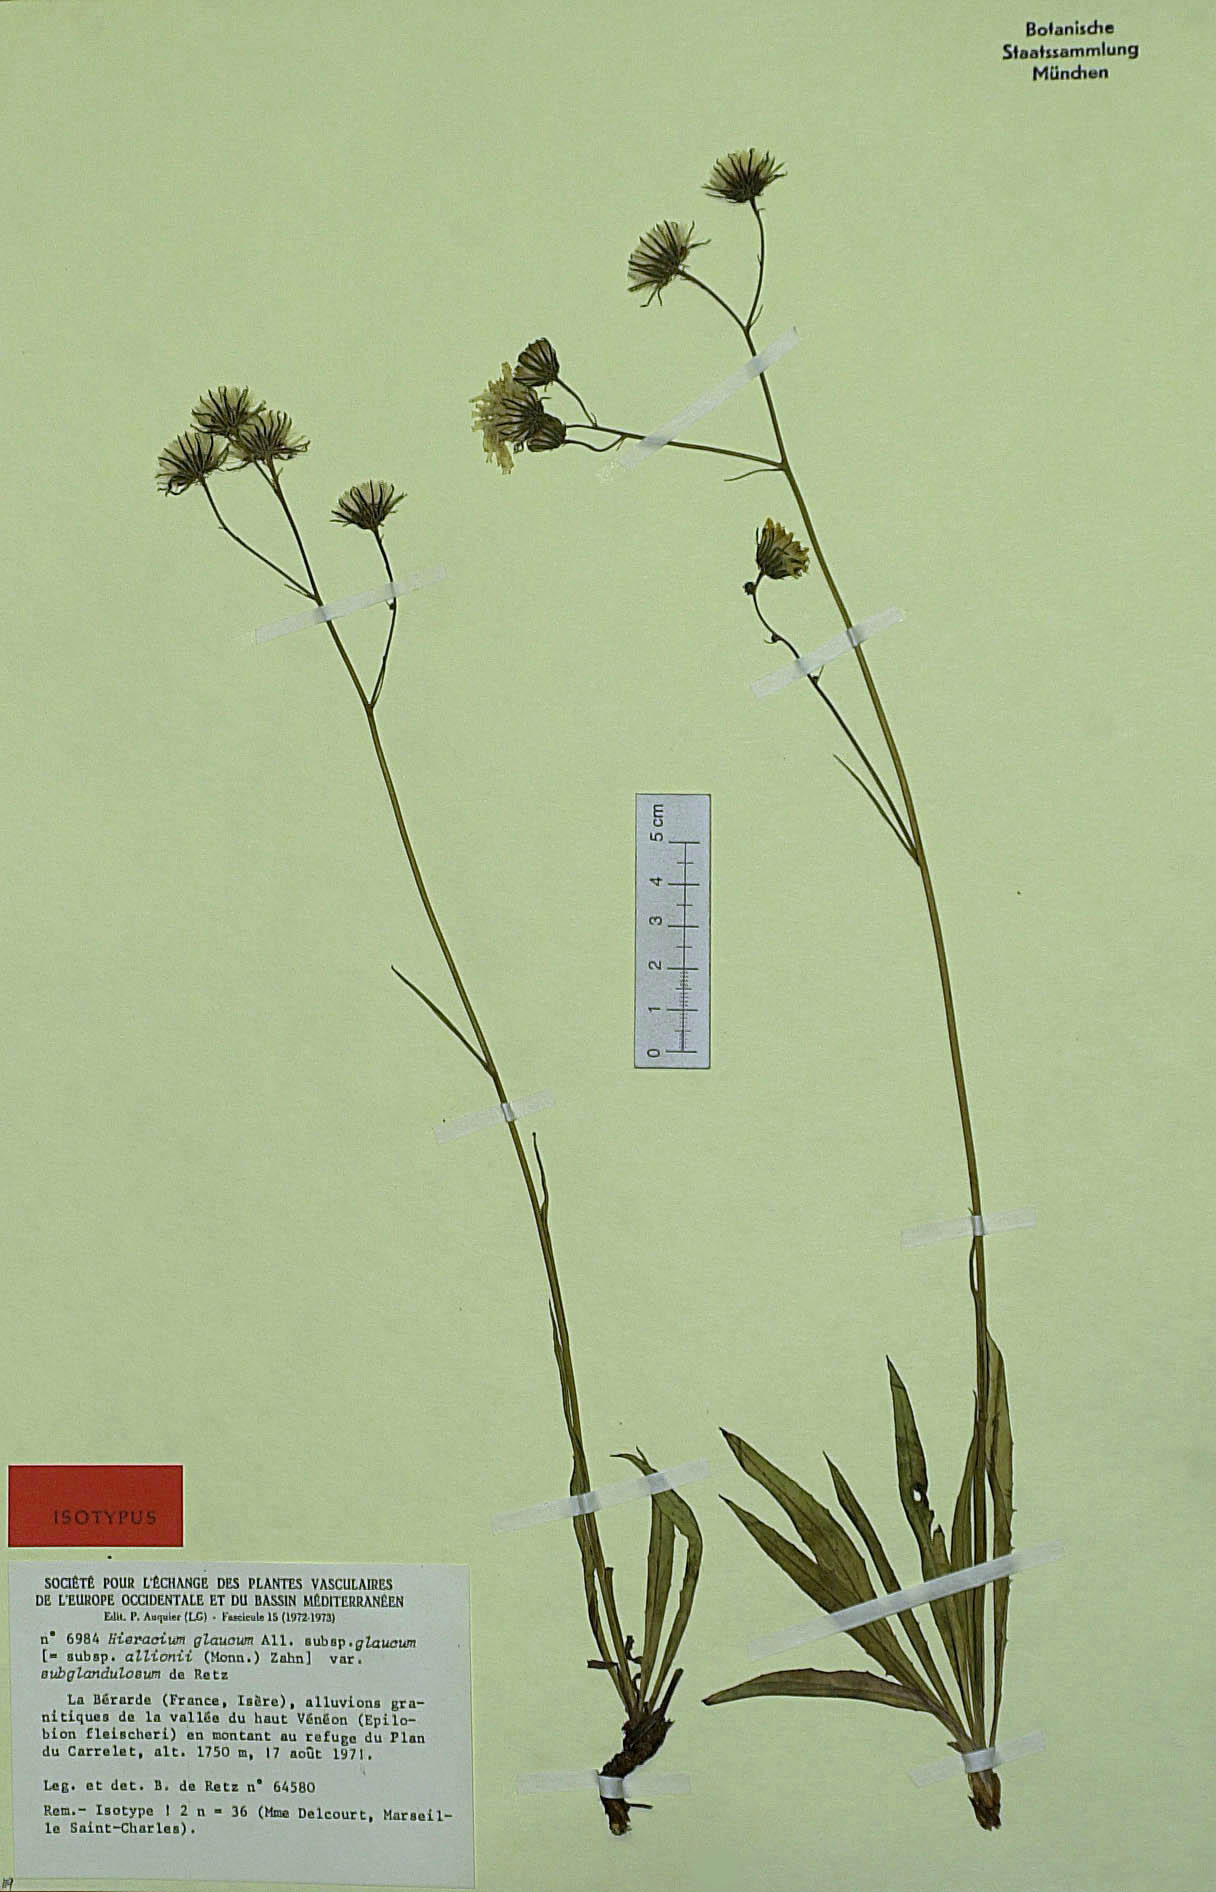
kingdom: Plantae
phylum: Tracheophyta
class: Magnoliopsida
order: Asterales
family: Asteraceae
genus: Hieracium
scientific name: Hieracium glaucum
